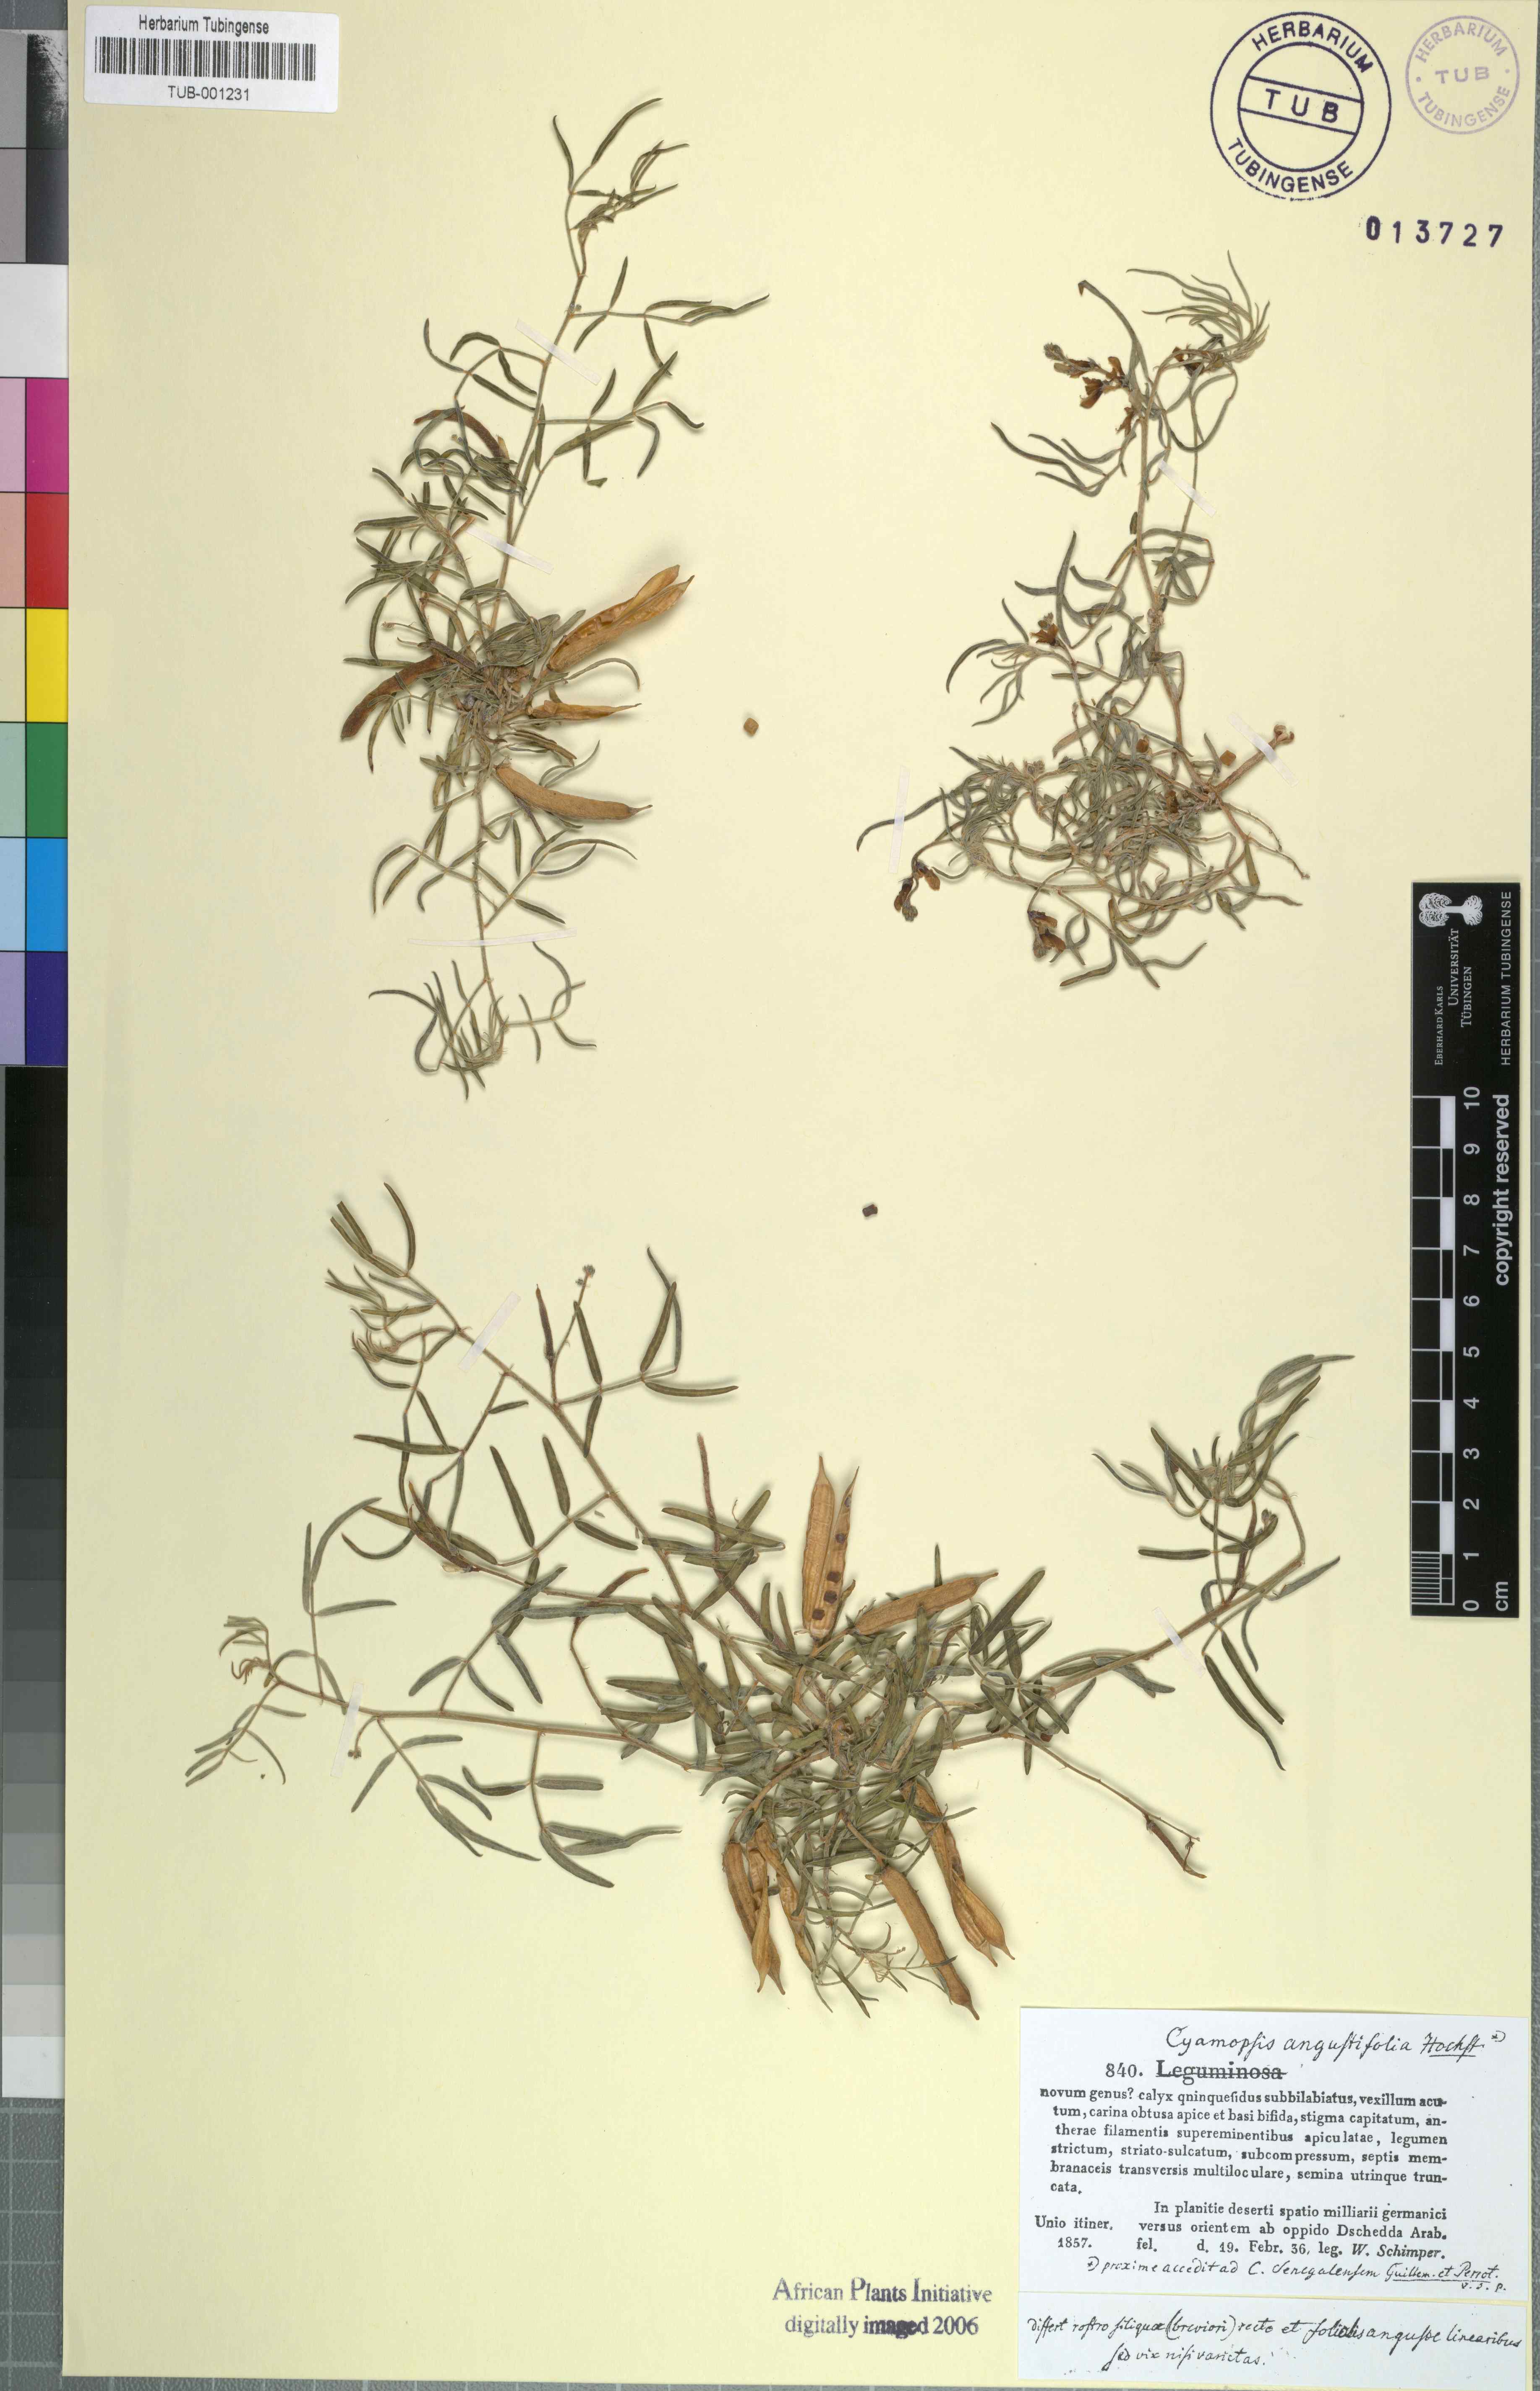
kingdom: Plantae
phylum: Tracheophyta
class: Magnoliopsida
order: Fabales
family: Fabaceae
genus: Cyamopsis
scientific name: Cyamopsis senegalensis
